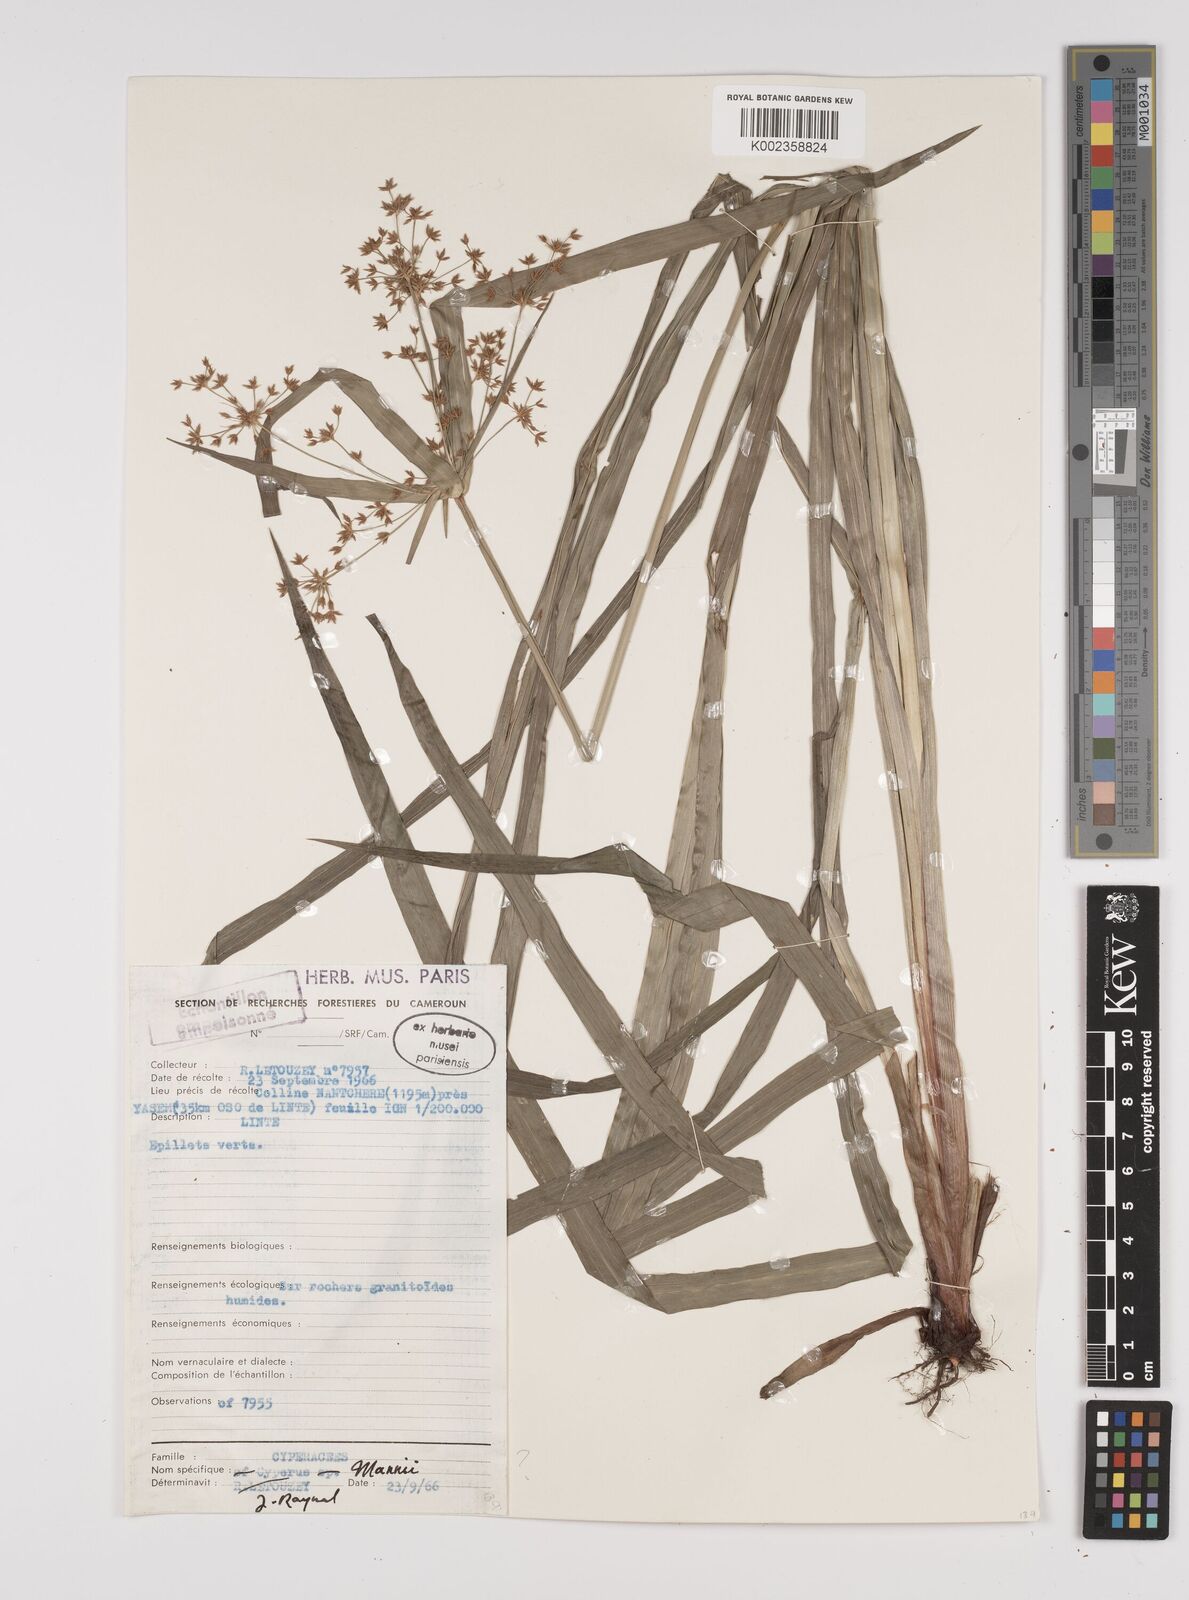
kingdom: Plantae
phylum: Tracheophyta
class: Liliopsida
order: Poales
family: Cyperaceae
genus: Cyperus
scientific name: Cyperus baronii
